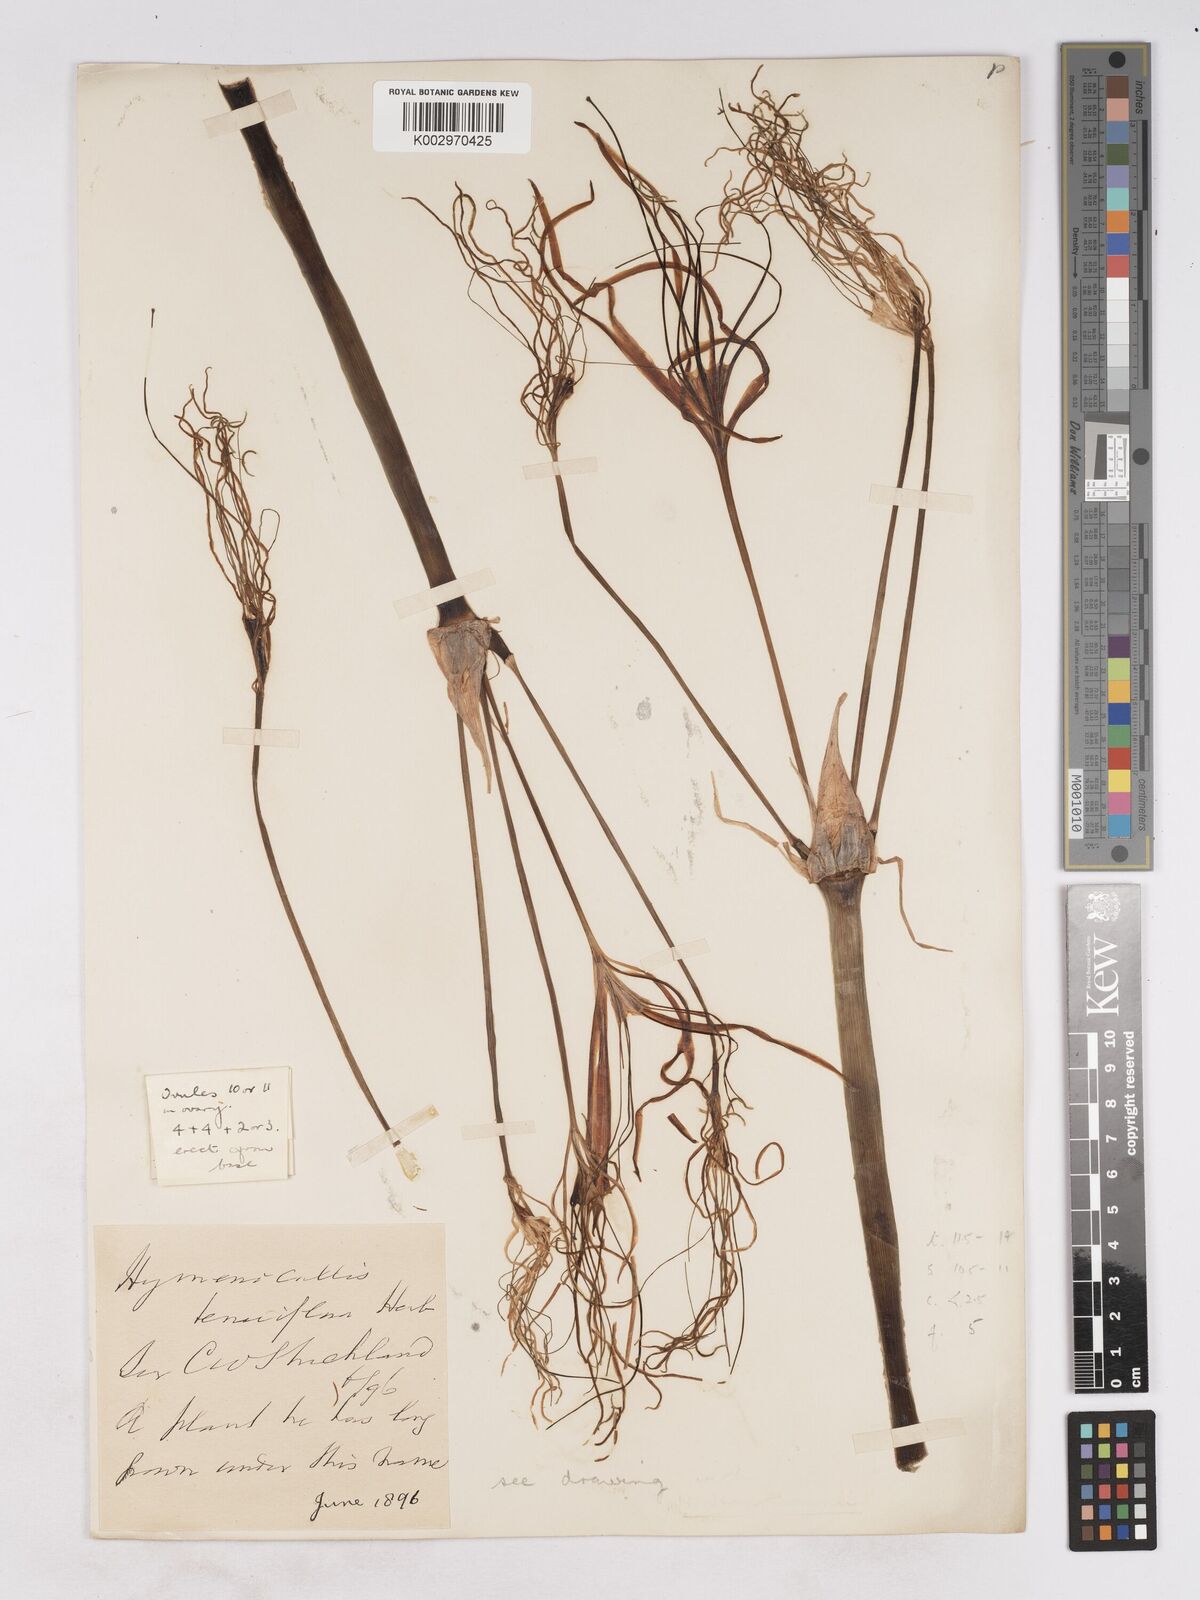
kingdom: Plantae
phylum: Tracheophyta
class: Liliopsida
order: Asparagales
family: Amaryllidaceae
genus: Hymenocallis
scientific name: Hymenocallis littoralis
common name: Beach spiderlily
